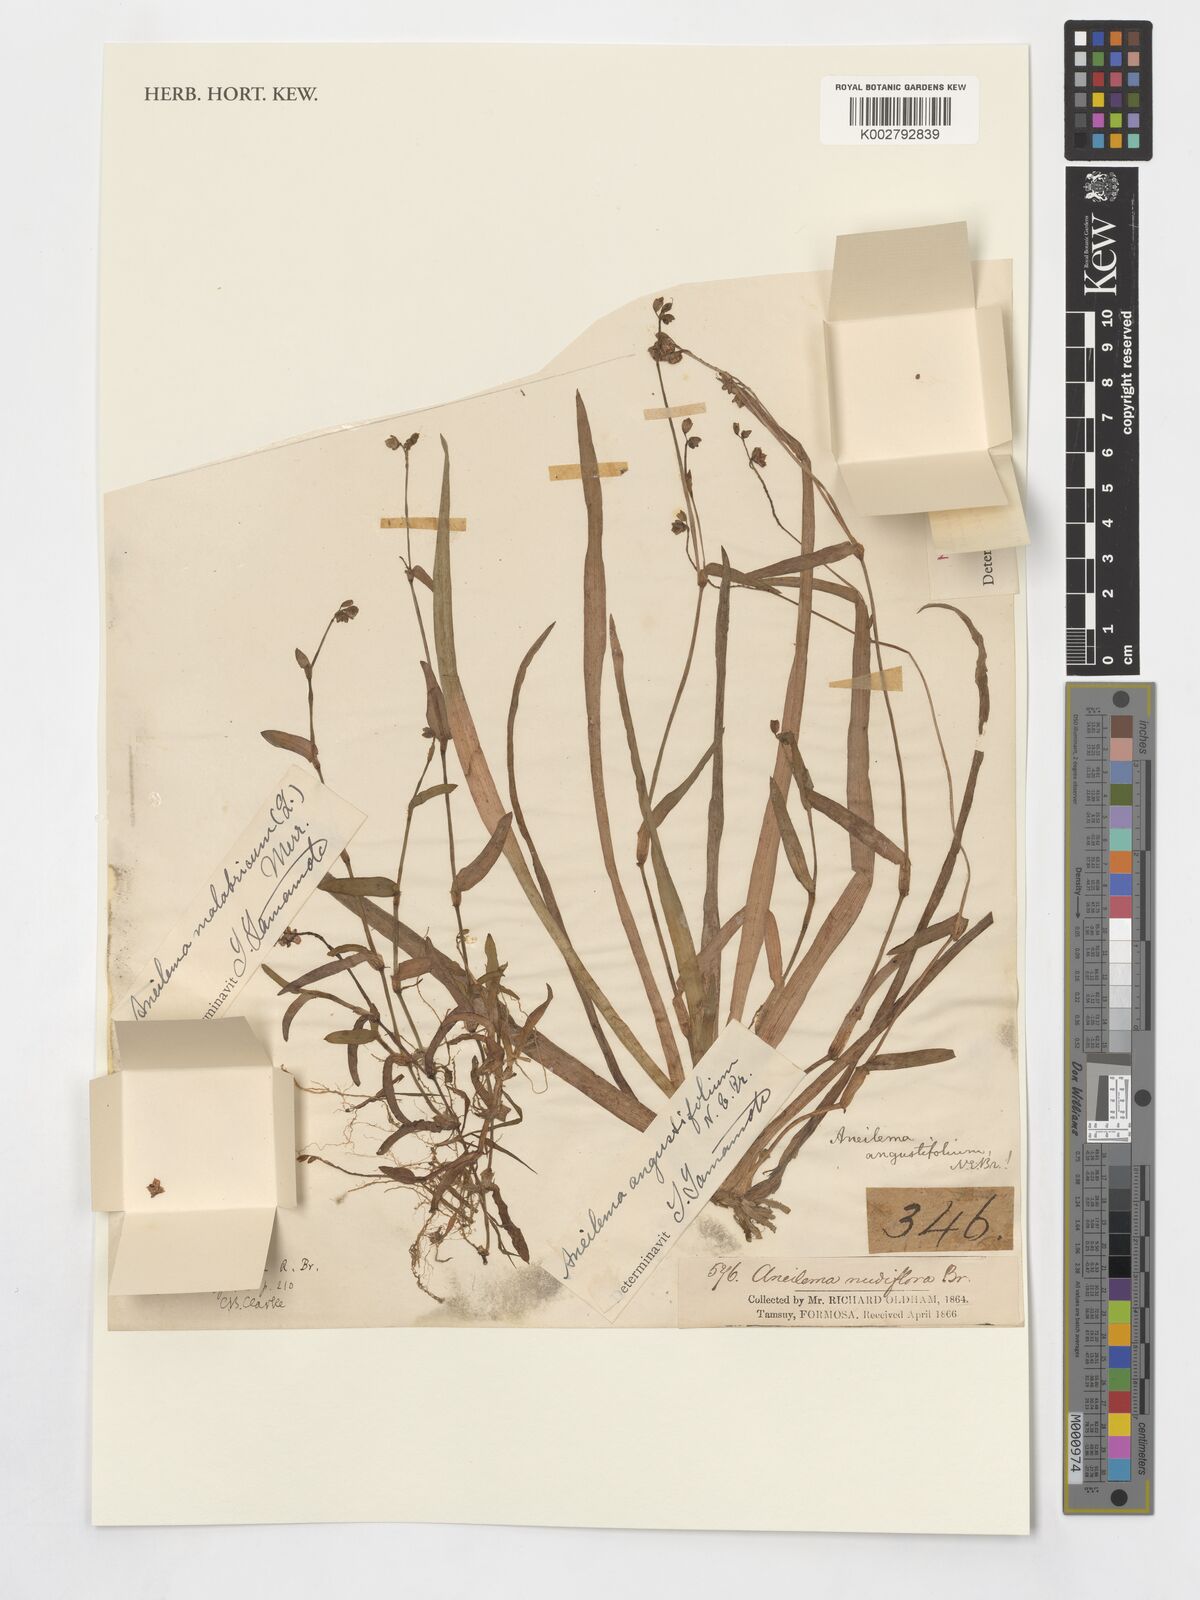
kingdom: Plantae
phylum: Tracheophyta
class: Liliopsida
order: Commelinales
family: Commelinaceae
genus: Murdannia
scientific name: Murdannia loriformis
